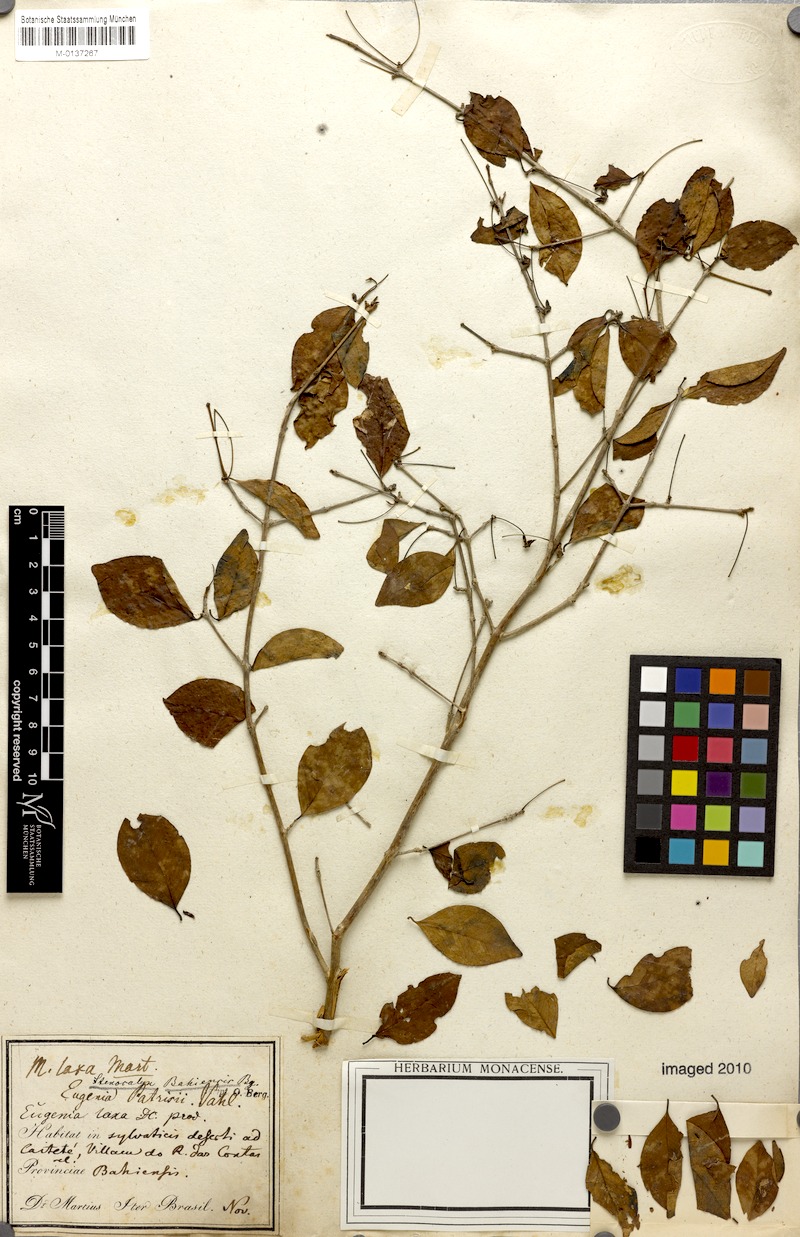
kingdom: Plantae
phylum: Tracheophyta
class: Magnoliopsida
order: Myrtales
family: Myrtaceae
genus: Eugenia
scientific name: Eugenia laxa
